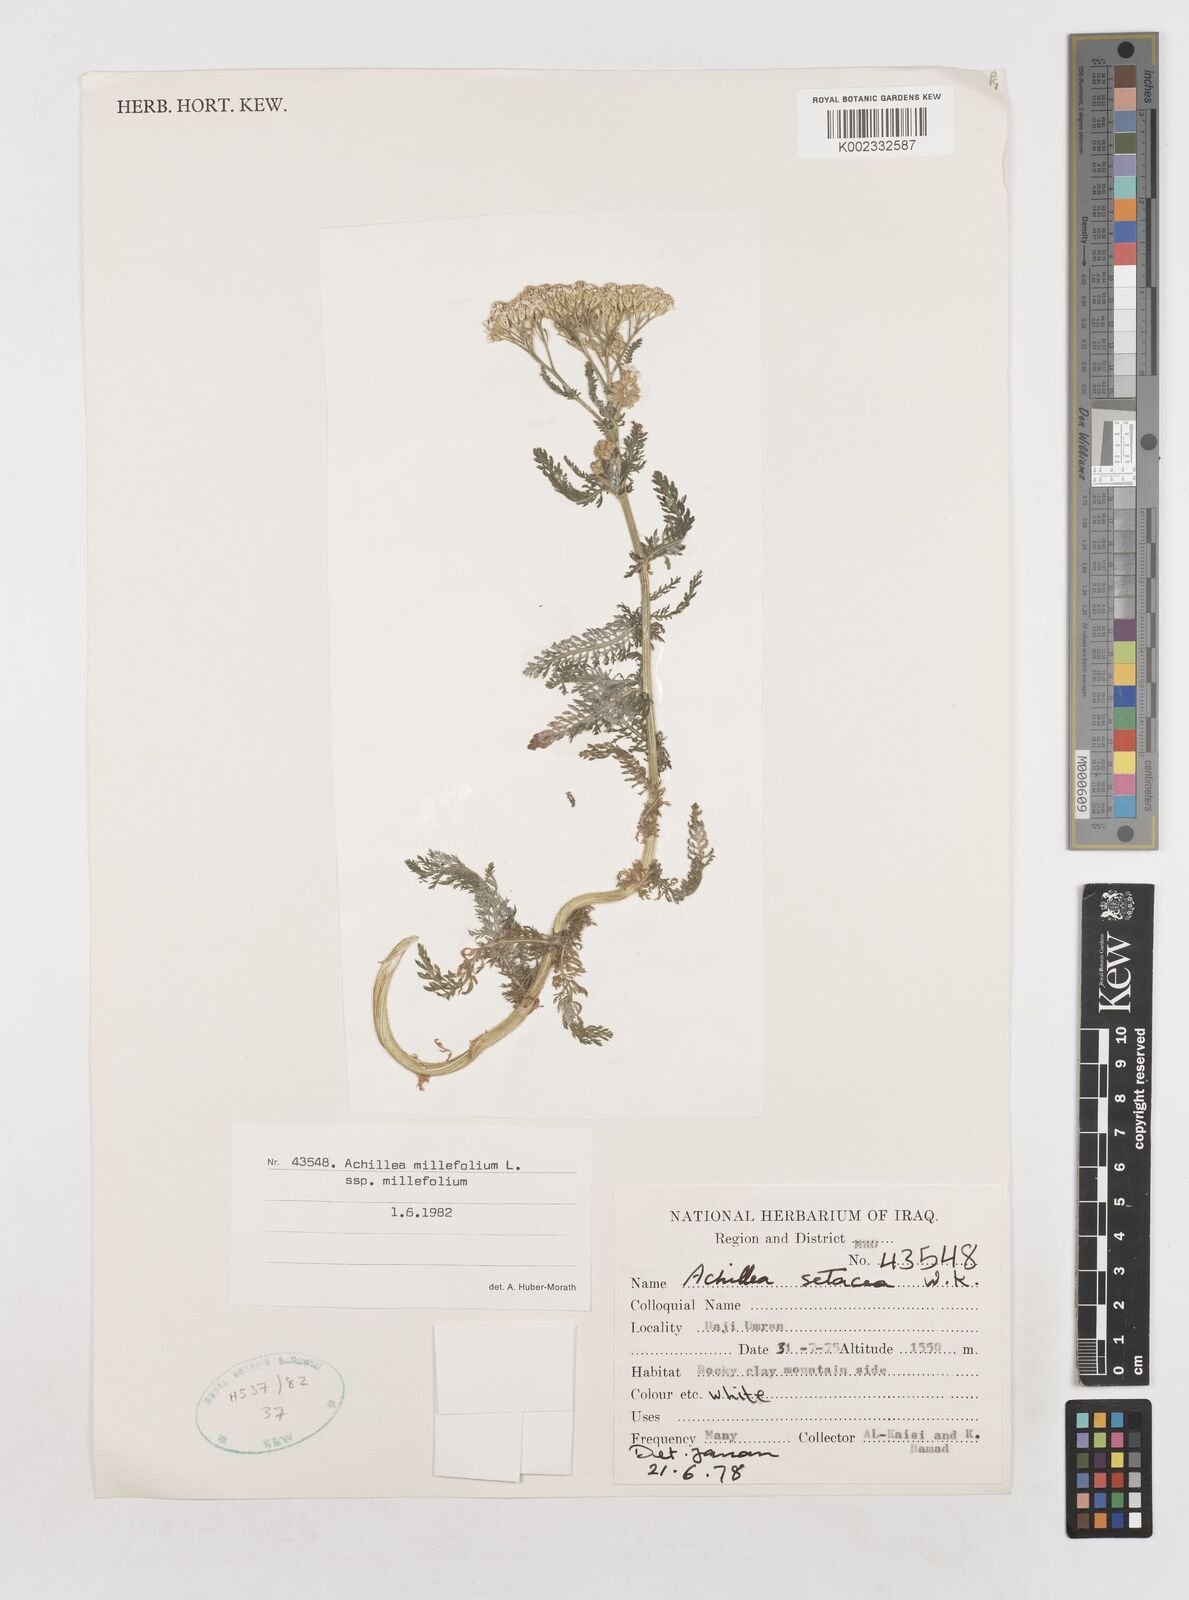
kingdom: Plantae
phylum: Tracheophyta
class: Magnoliopsida
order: Asterales
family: Asteraceae
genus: Achillea
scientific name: Achillea millefolium
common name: Yarrow
